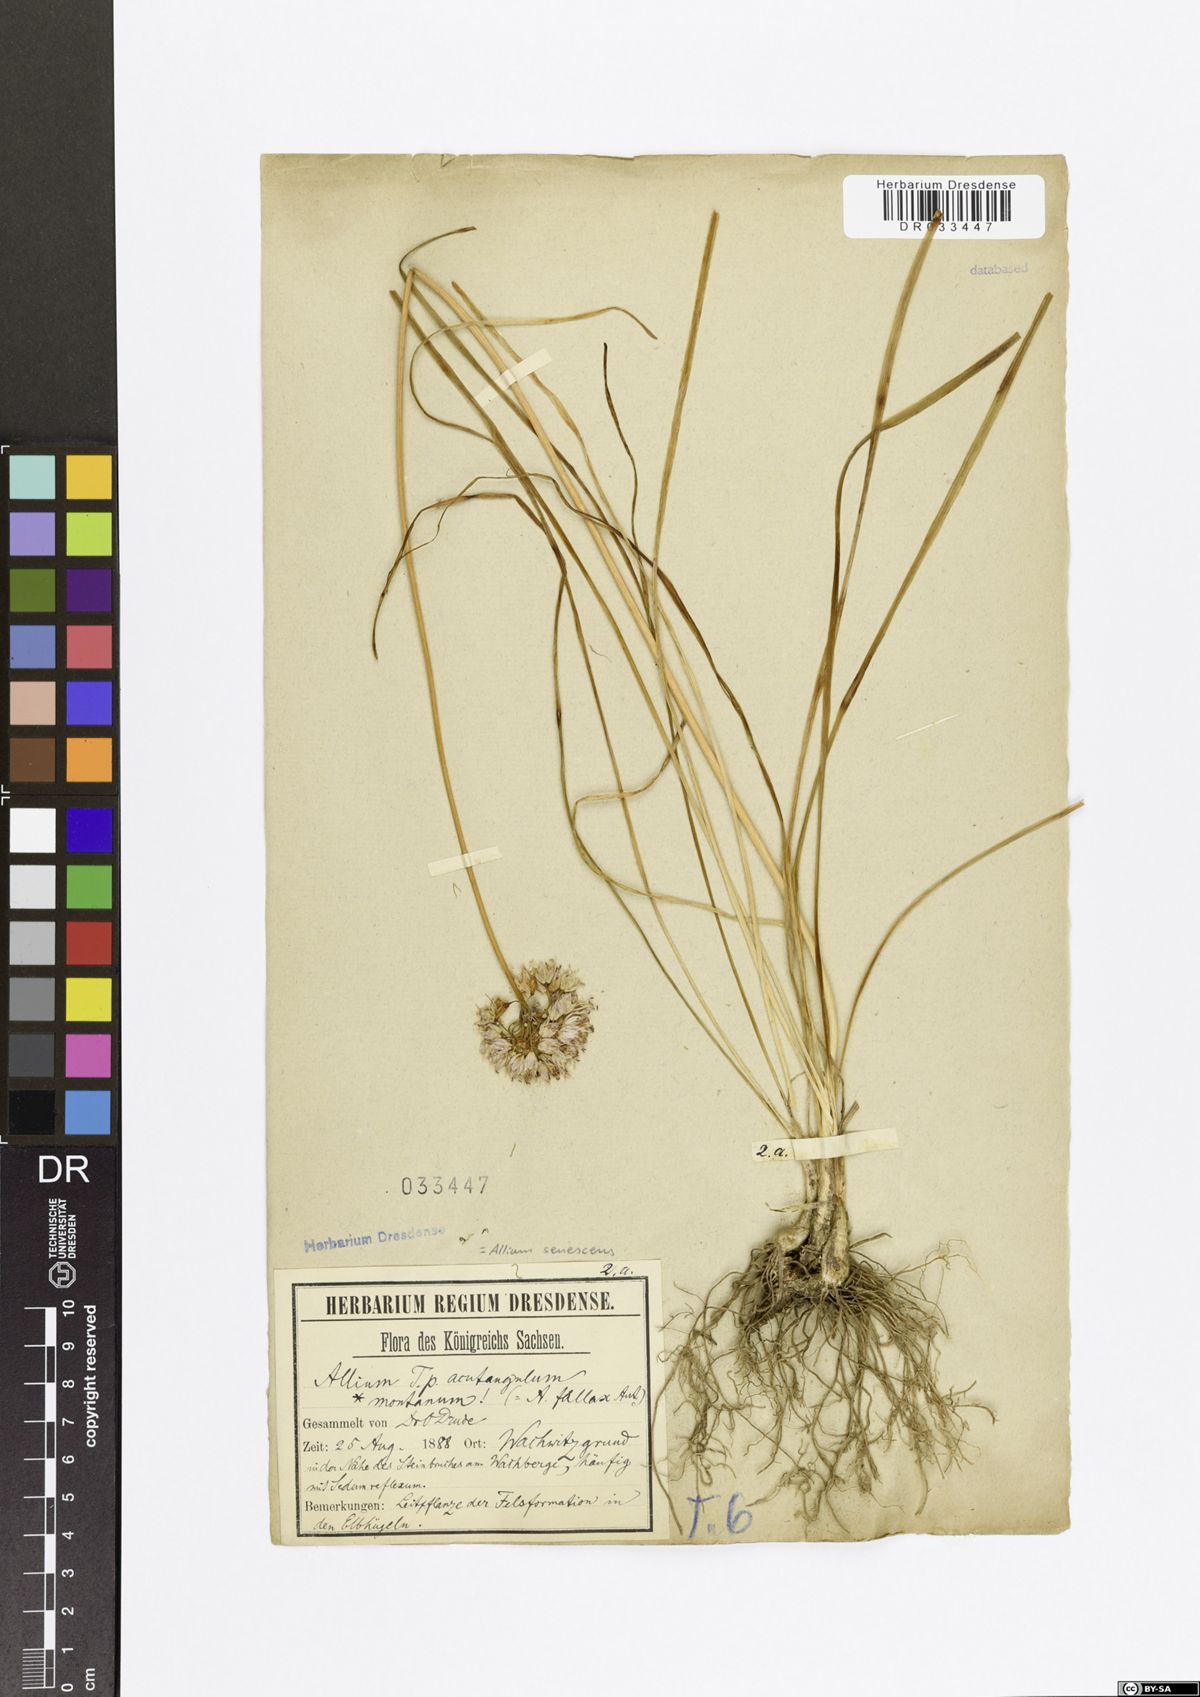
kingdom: Plantae
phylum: Tracheophyta
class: Liliopsida
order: Asparagales
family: Amaryllidaceae
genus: Allium
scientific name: Allium senescens
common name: German garlic
